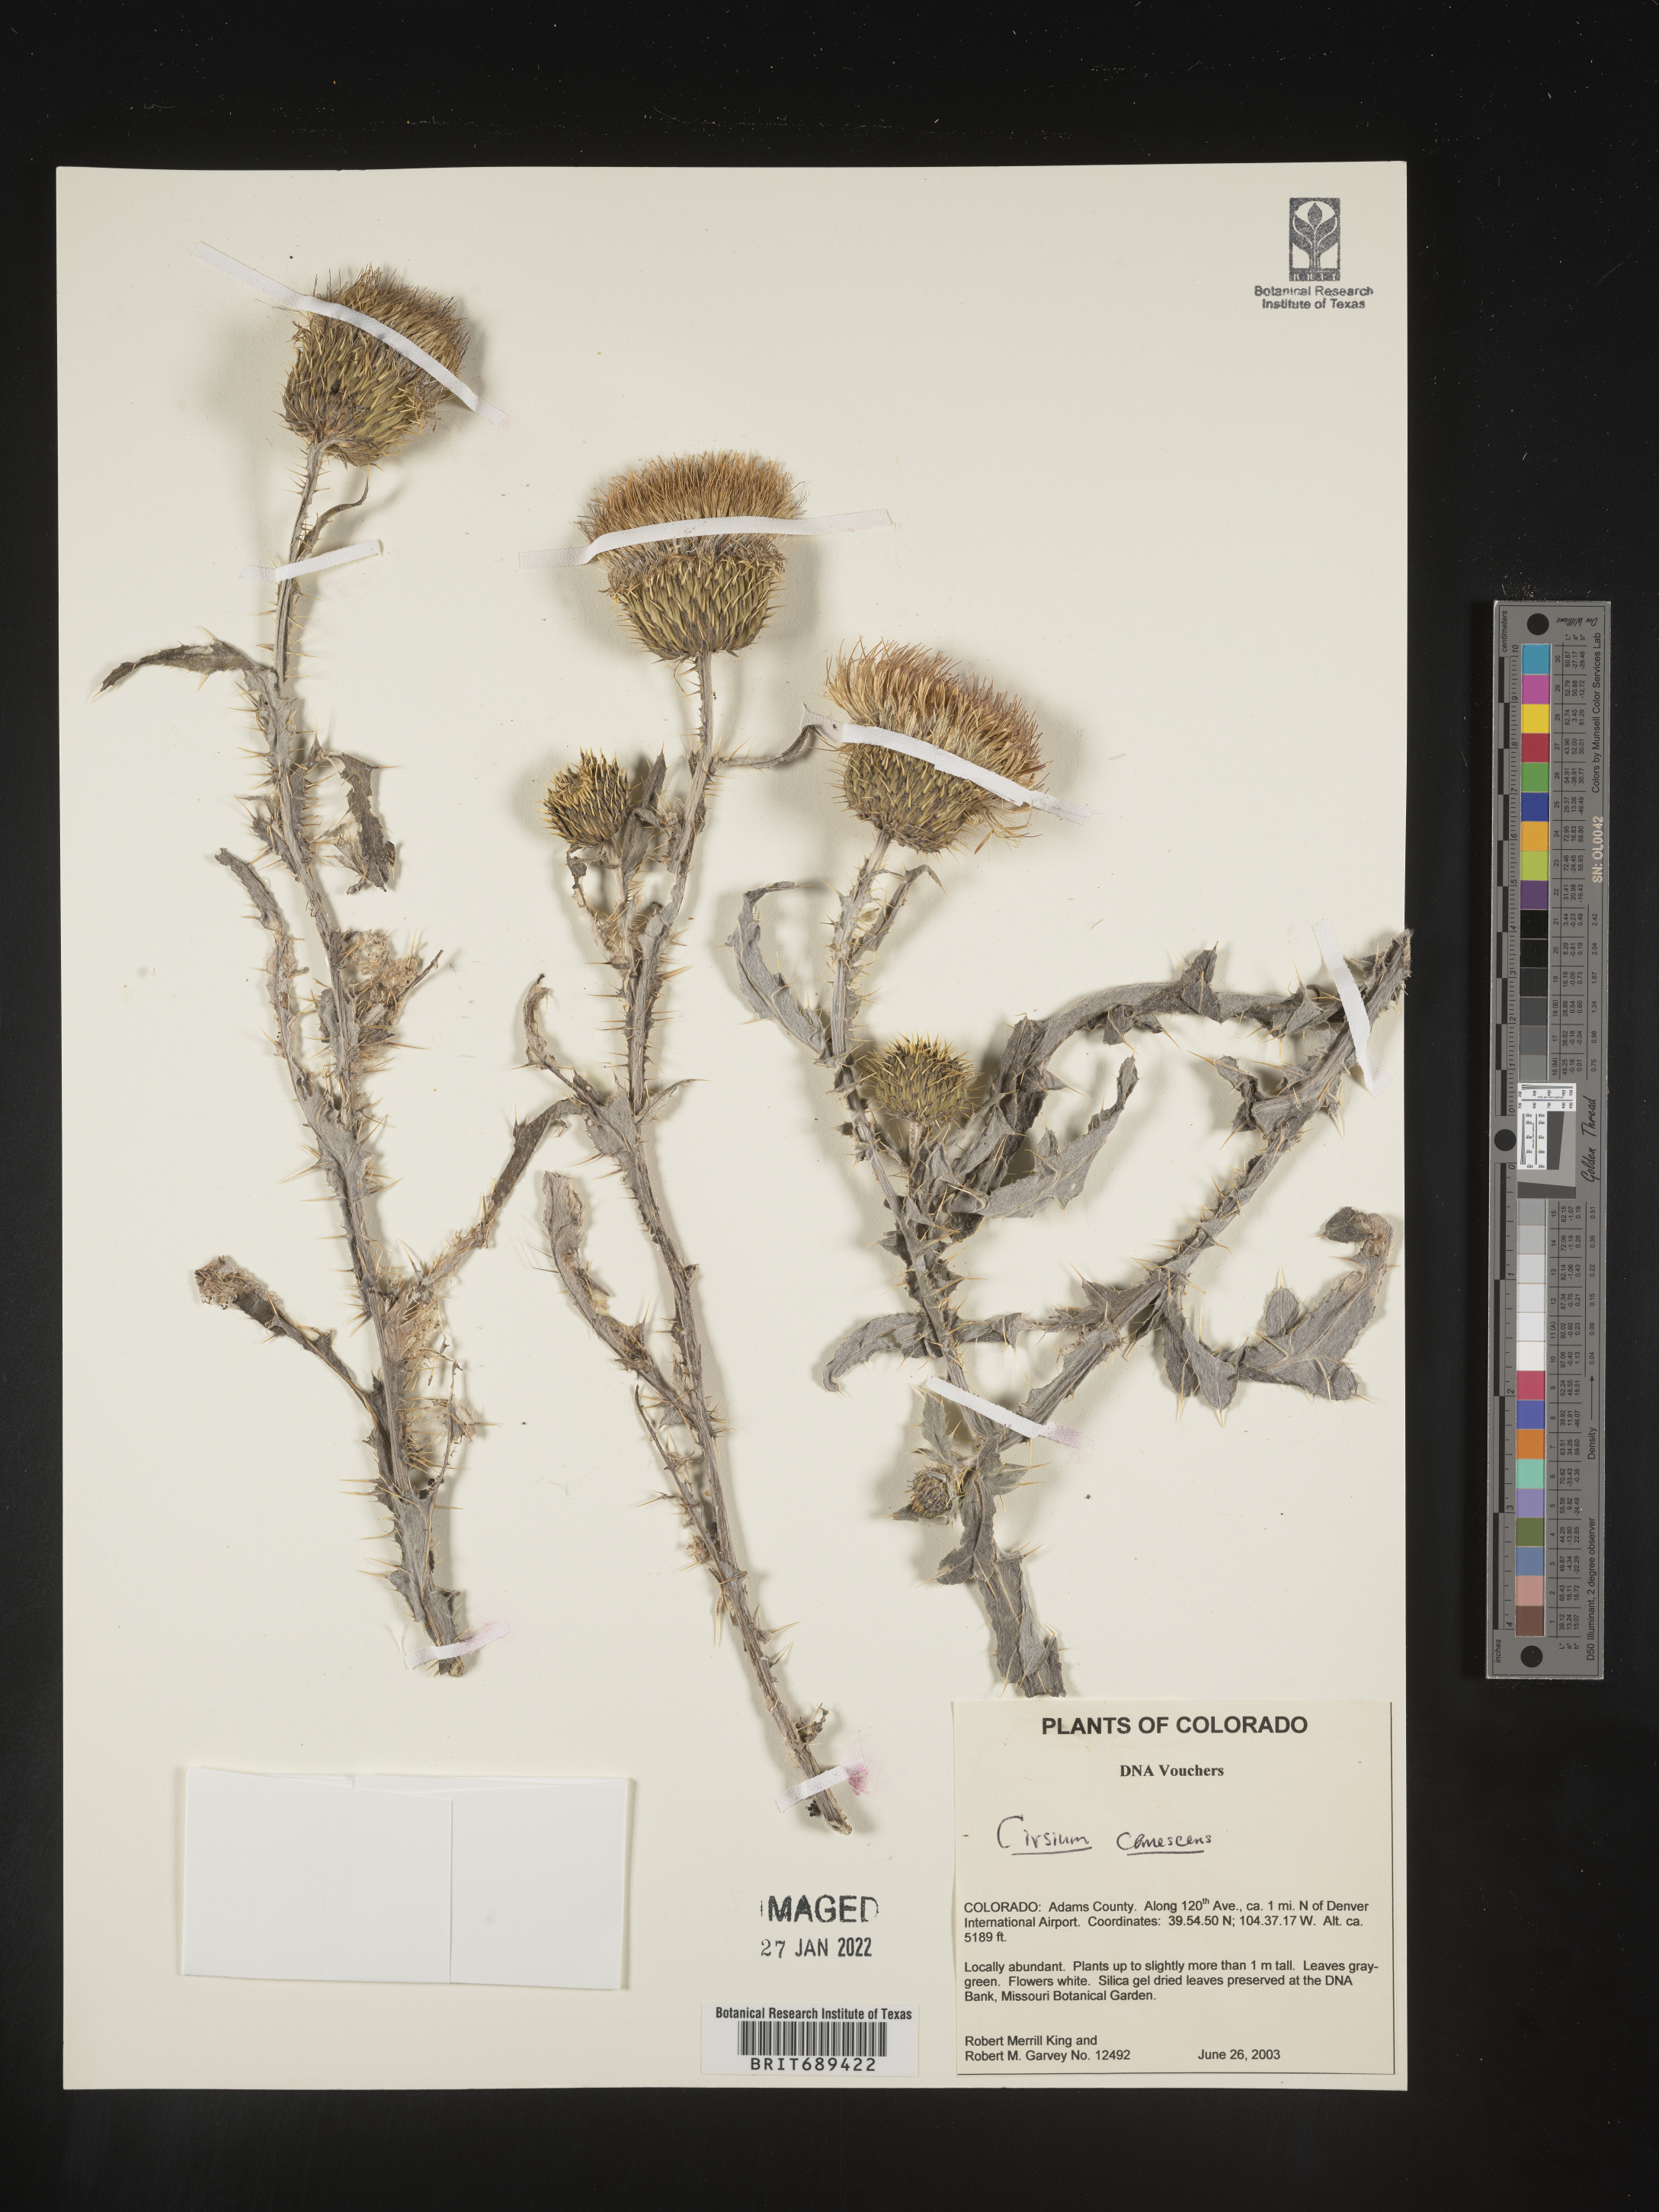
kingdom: Plantae
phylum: Tracheophyta
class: Magnoliopsida
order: Asterales
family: Asteraceae
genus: Cirsium
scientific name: Cirsium canescens
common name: Prairie thistle
